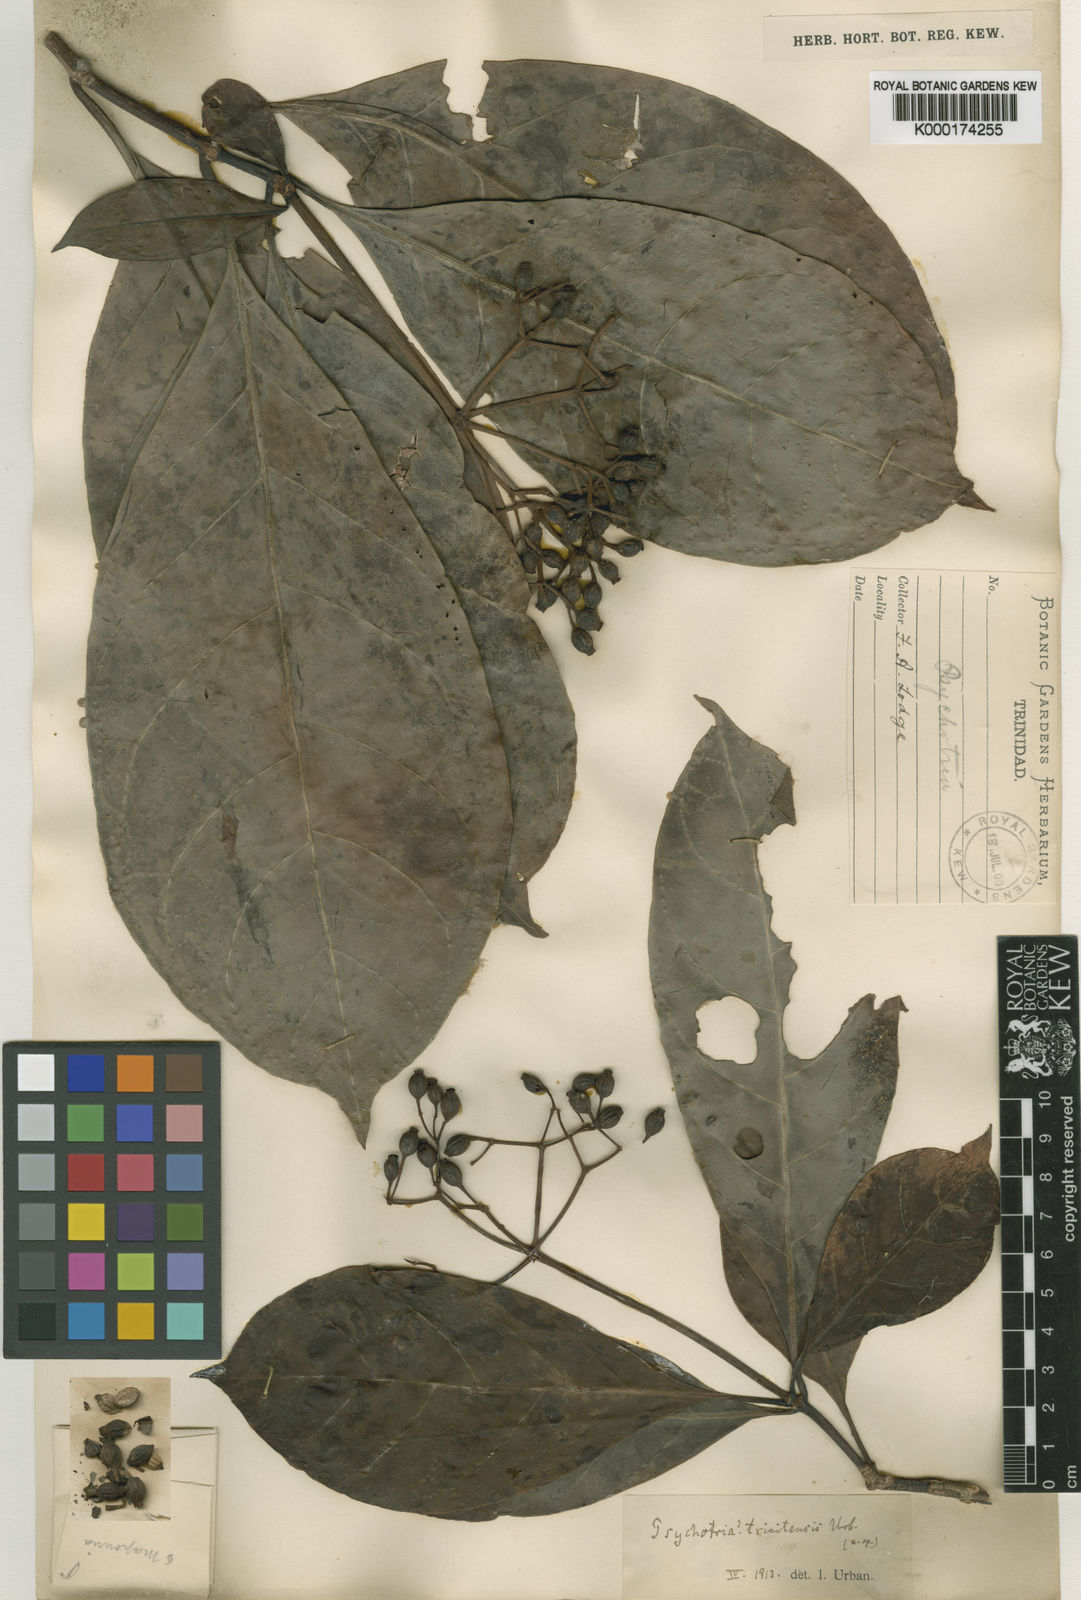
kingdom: Plantae
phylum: Tracheophyta
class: Magnoliopsida
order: Gentianales
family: Rubiaceae
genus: Psychotria
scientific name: Psychotria pedunculosa
